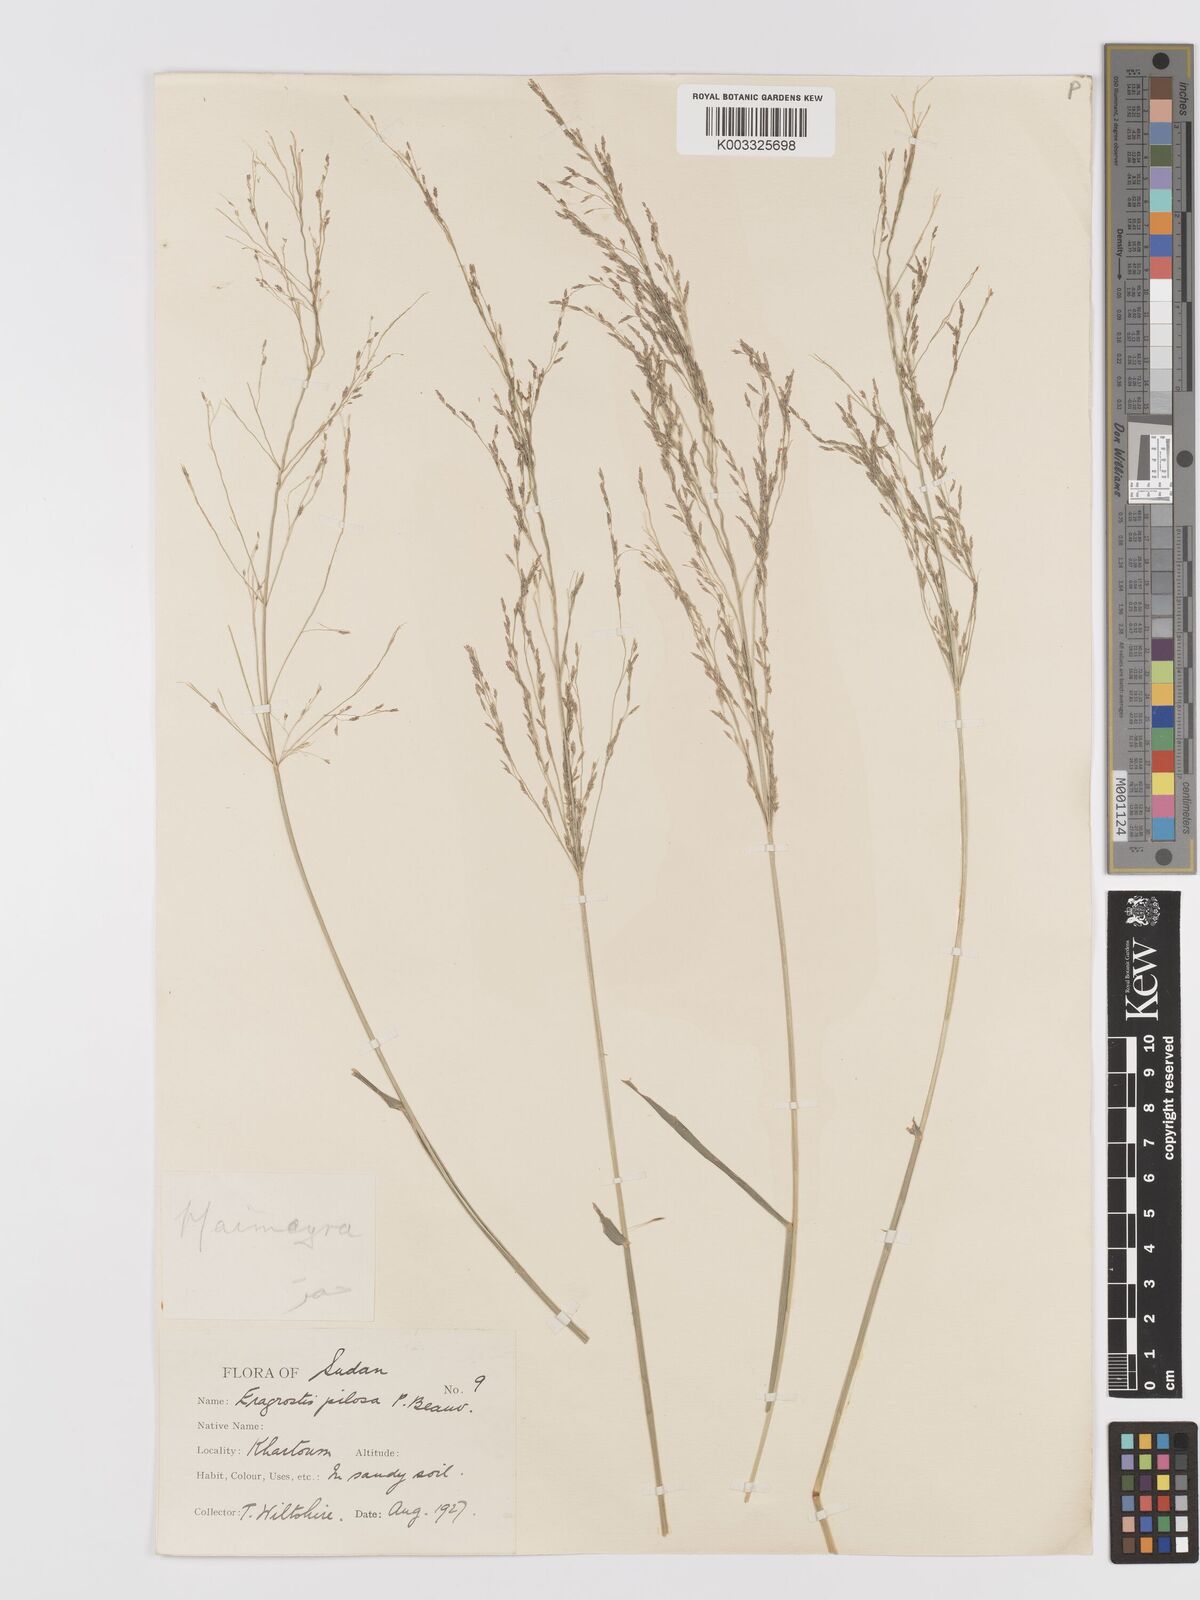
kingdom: Plantae
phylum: Tracheophyta
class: Liliopsida
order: Poales
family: Poaceae
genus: Eragrostis
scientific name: Eragrostis pilosa
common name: Indian lovegrass
